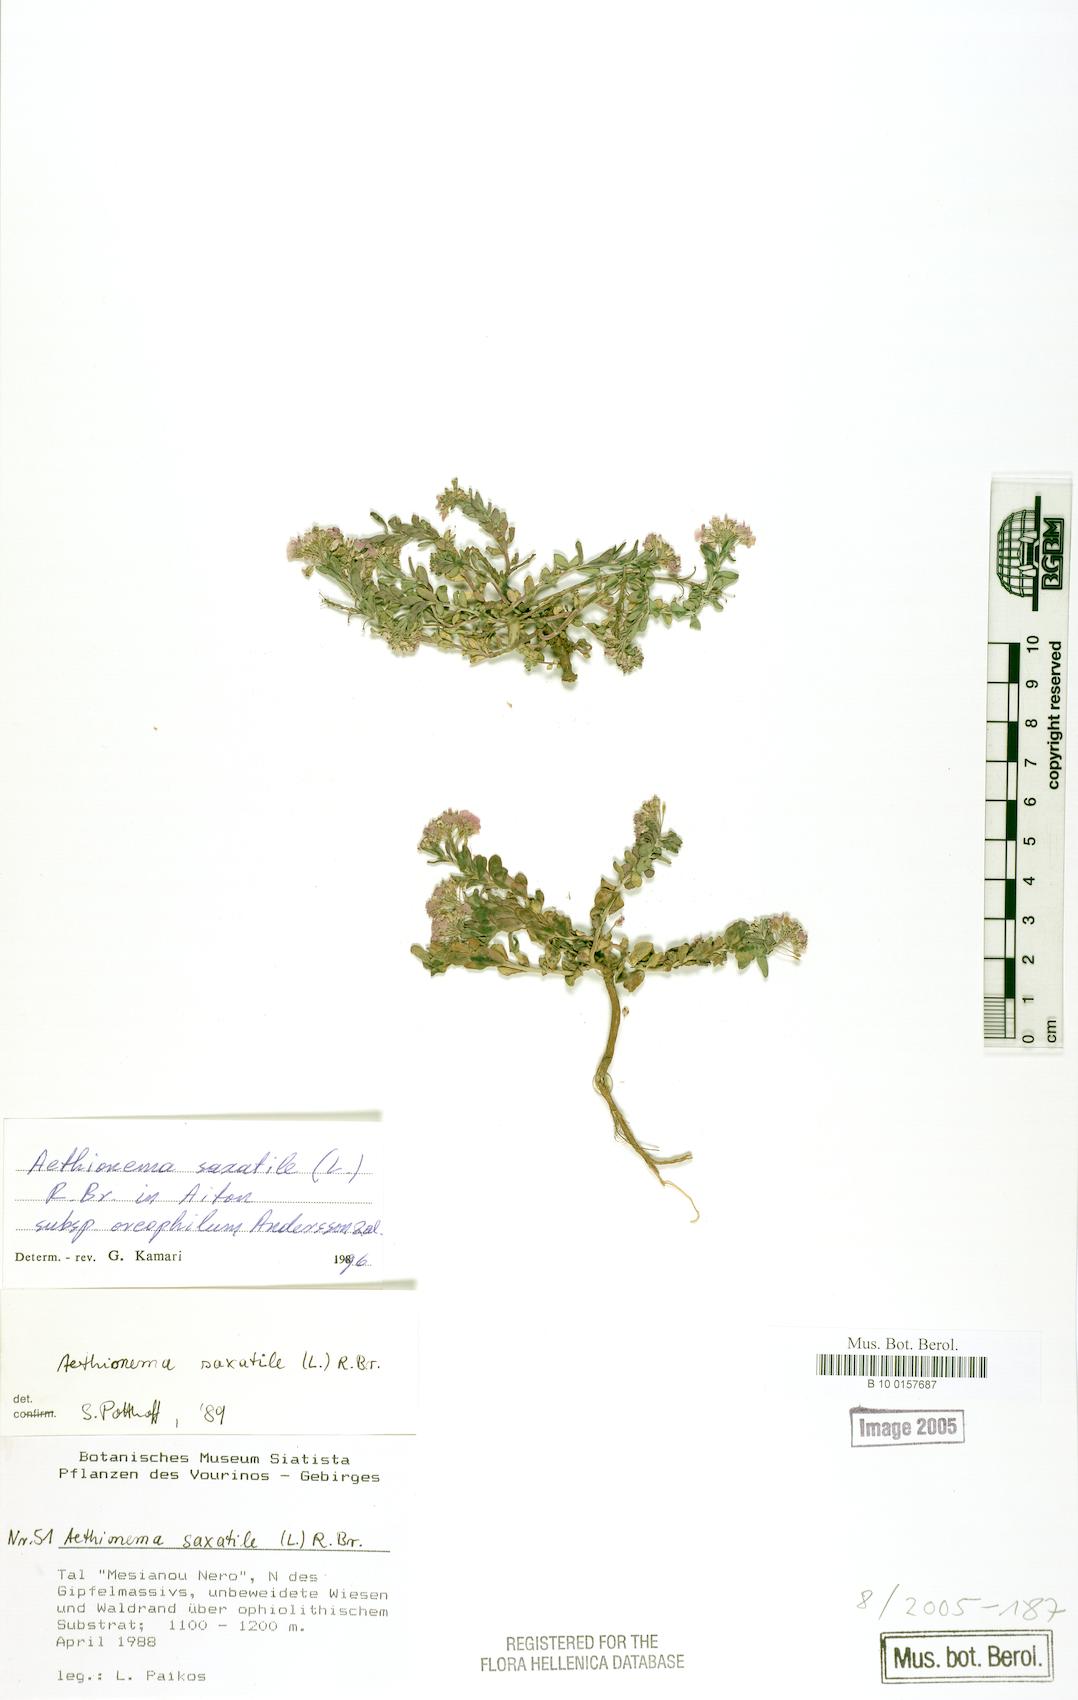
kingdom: Plantae
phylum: Tracheophyta
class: Magnoliopsida
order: Brassicales
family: Brassicaceae
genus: Aethionema
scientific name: Aethionema saxatile
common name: Burnt candytuft
